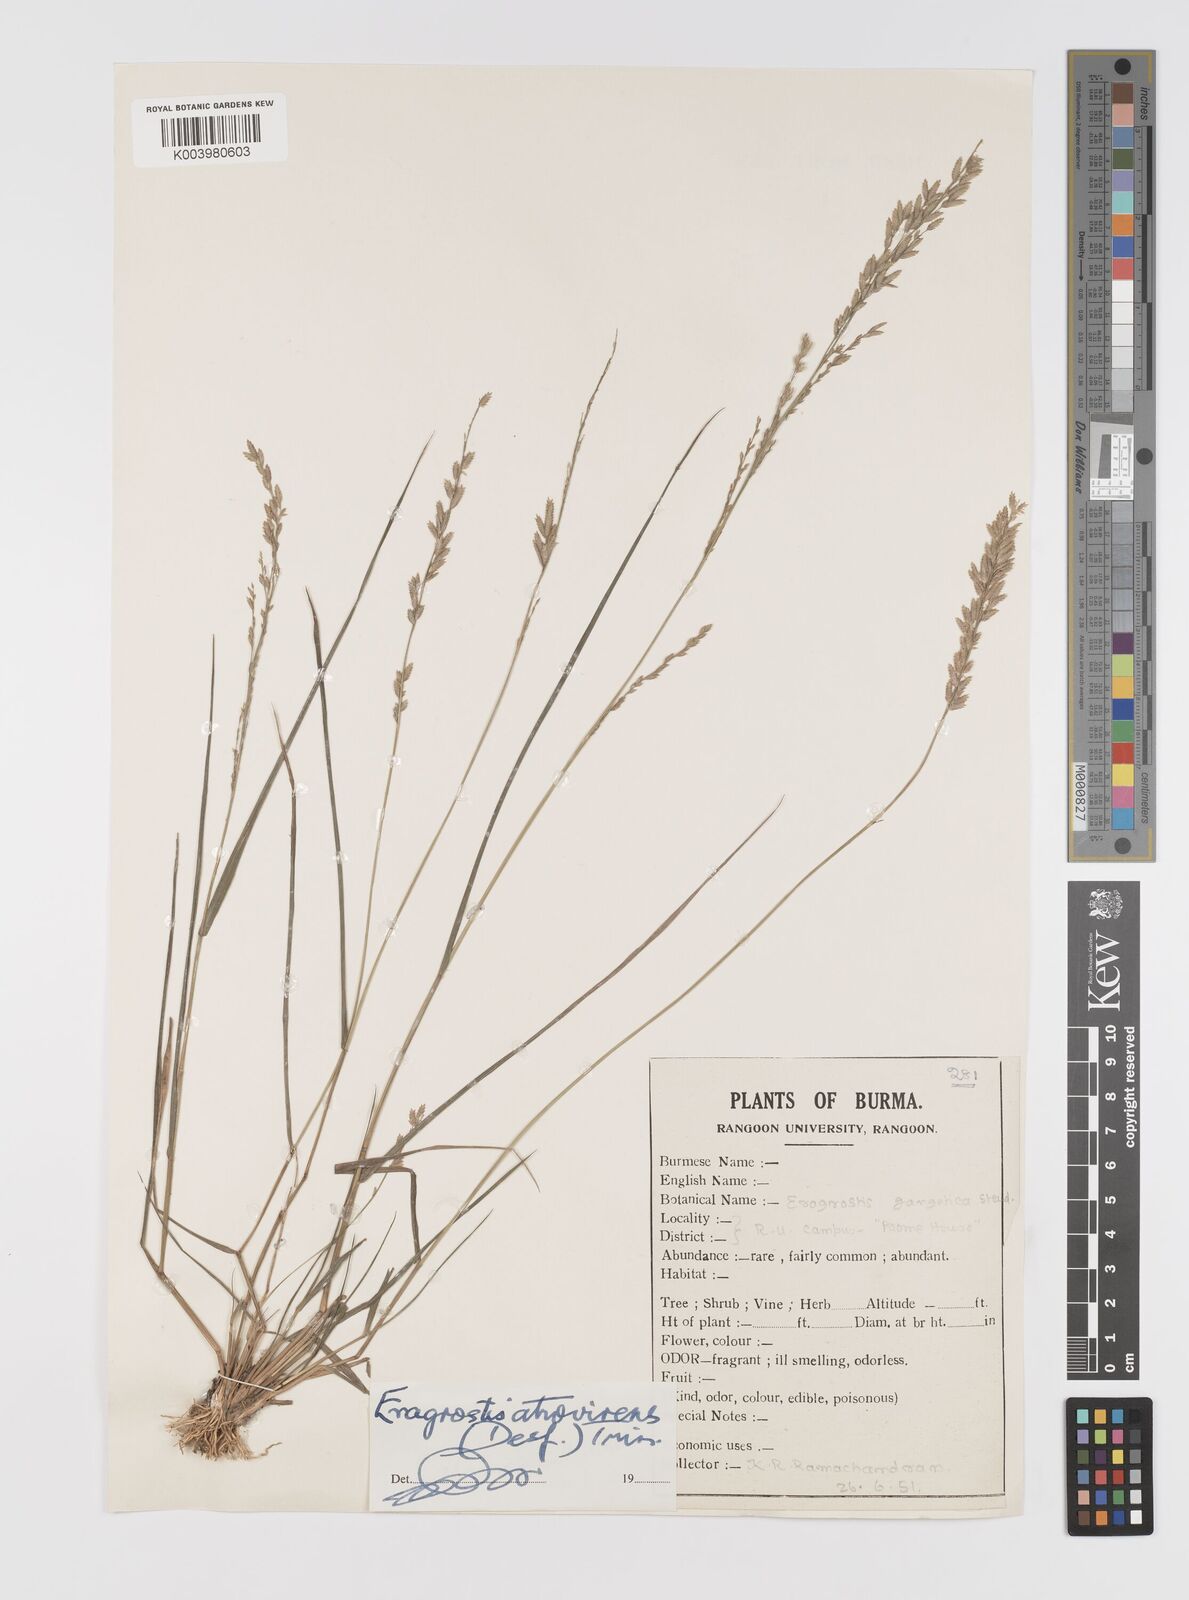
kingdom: Plantae
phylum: Tracheophyta
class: Liliopsida
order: Poales
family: Poaceae
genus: Eragrostis
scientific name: Eragrostis atrovirens
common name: Thalia lovegrass
